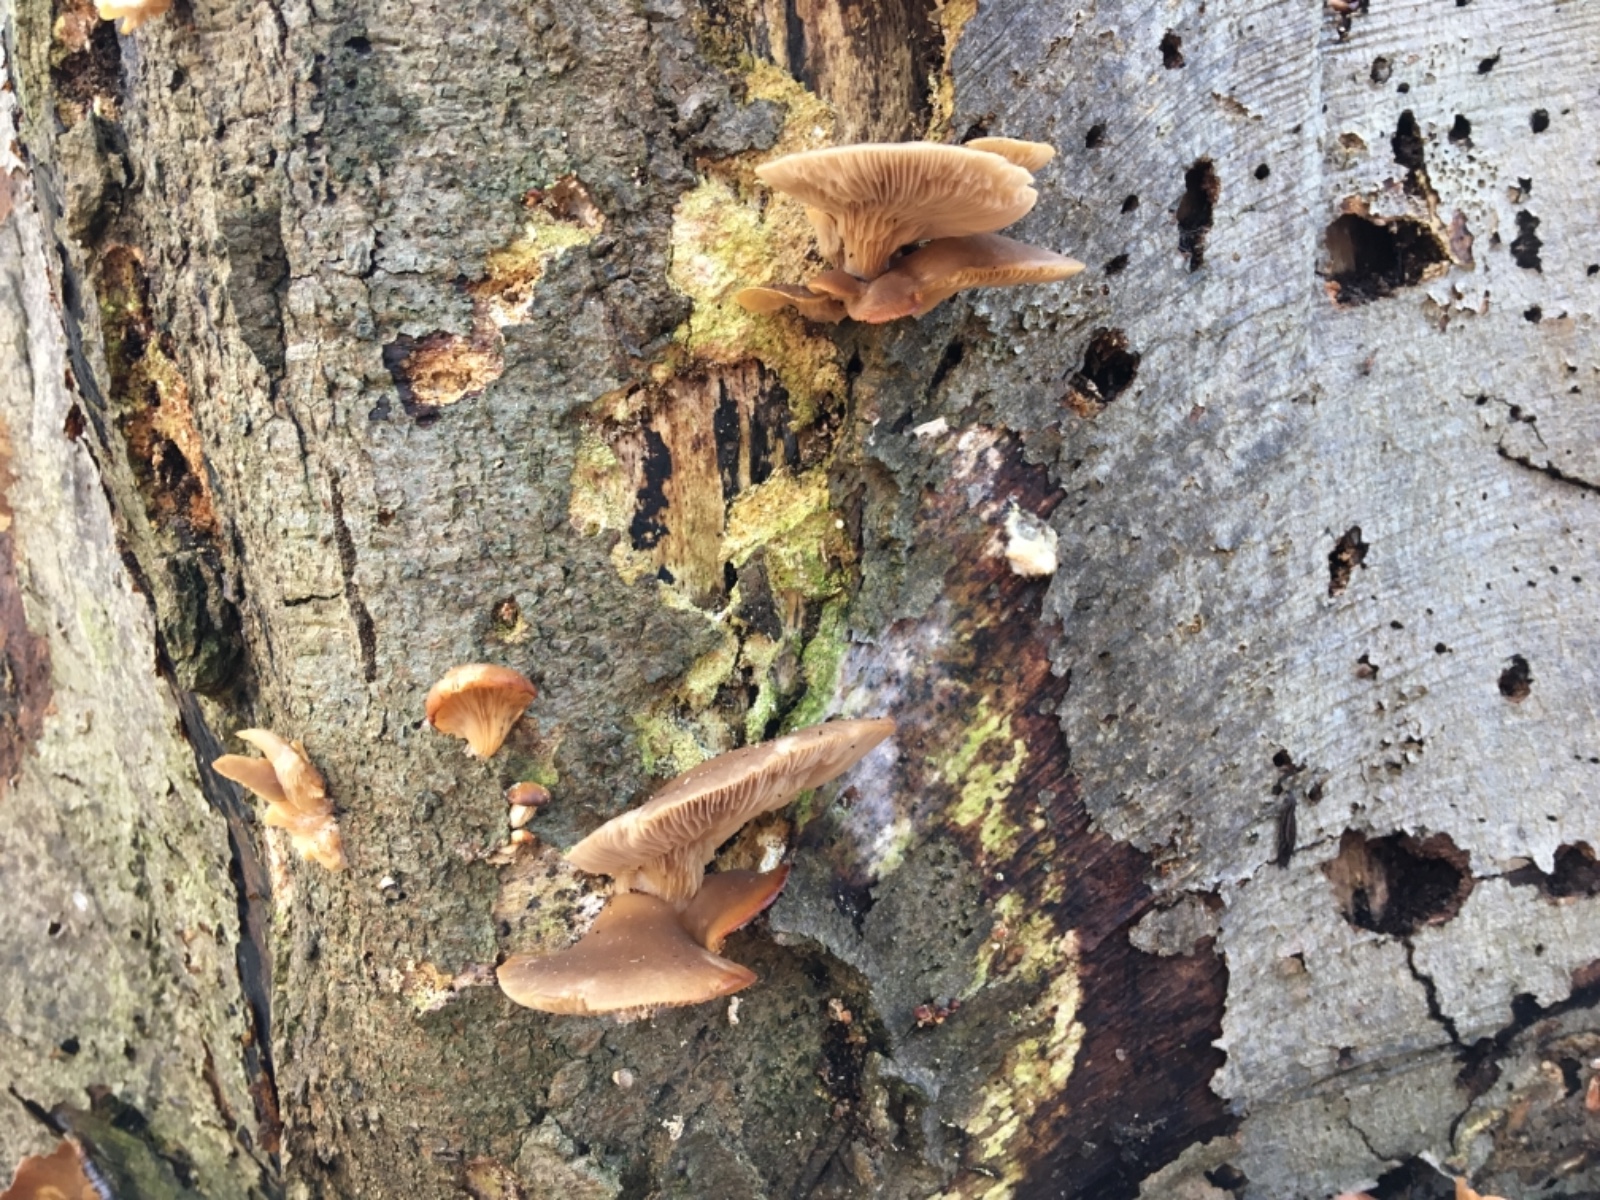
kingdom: Fungi
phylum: Basidiomycota
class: Agaricomycetes
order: Agaricales
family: Pleurotaceae
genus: Pleurotus
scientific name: Pleurotus ostreatus
